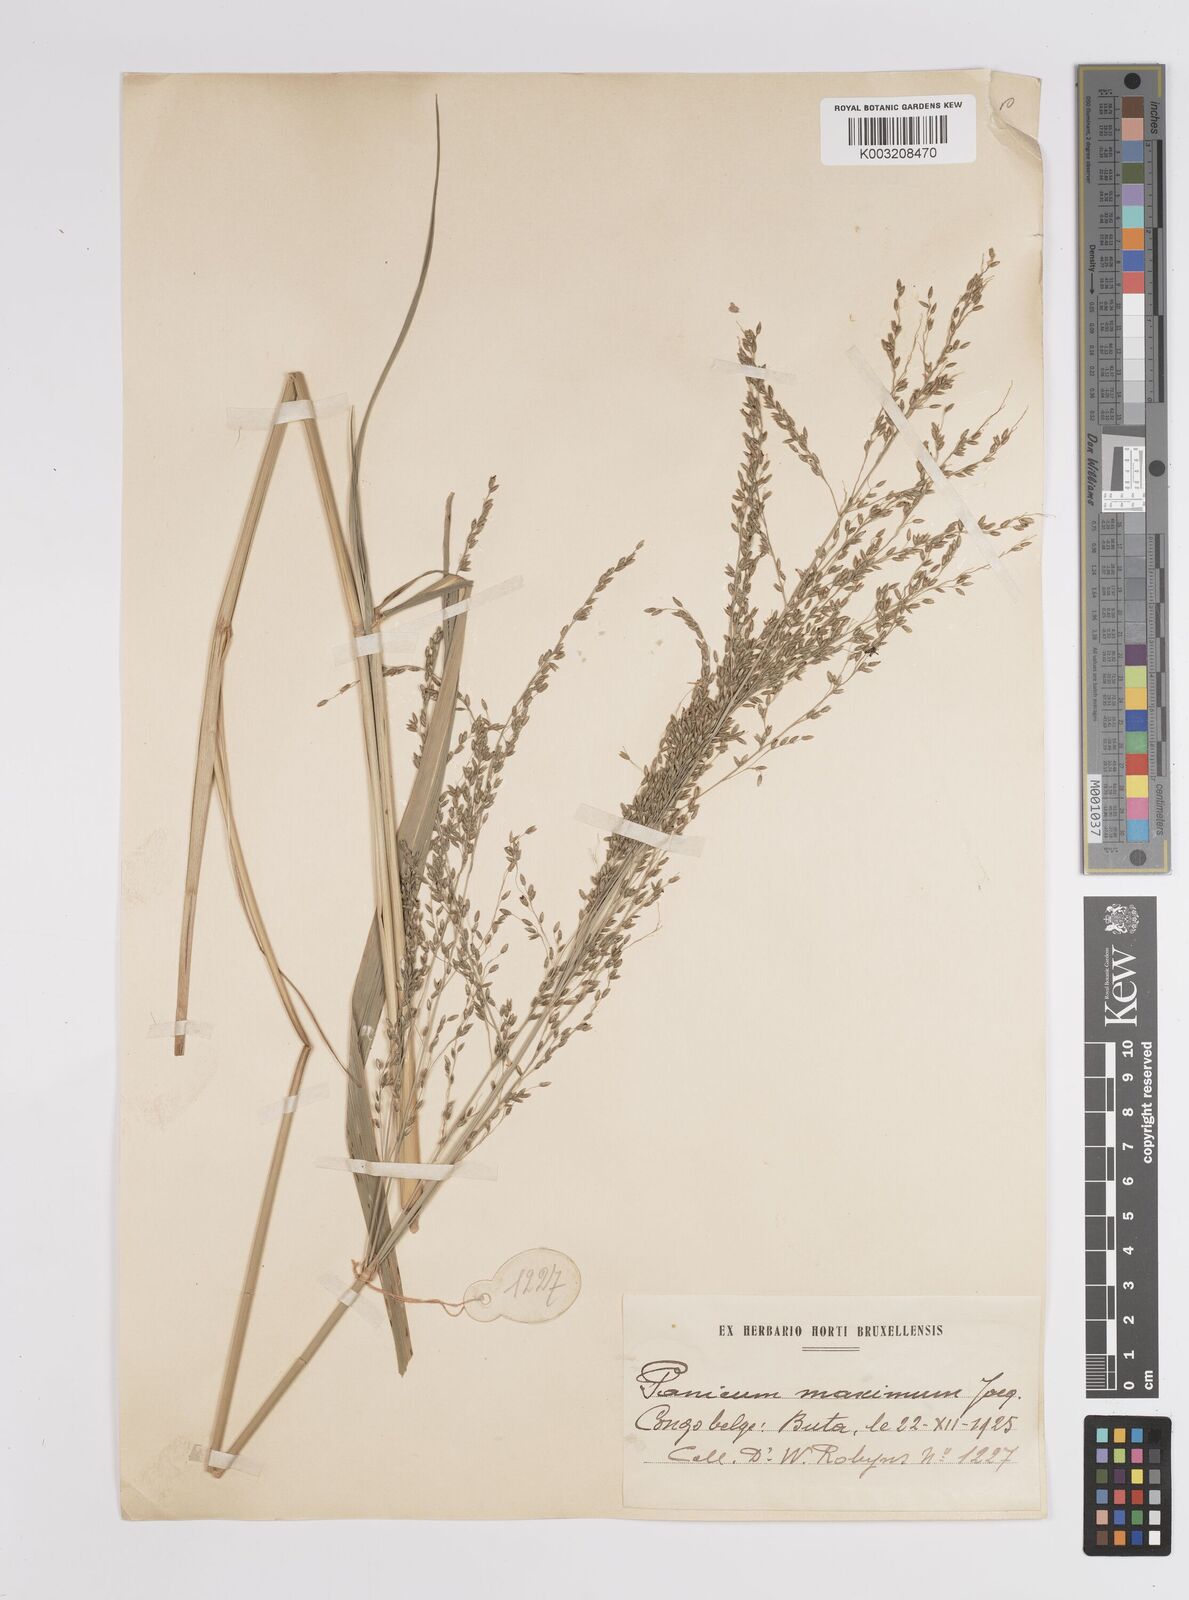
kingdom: Plantae
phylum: Tracheophyta
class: Liliopsida
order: Poales
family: Poaceae
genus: Megathyrsus
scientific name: Megathyrsus maximus
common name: Guineagrass
